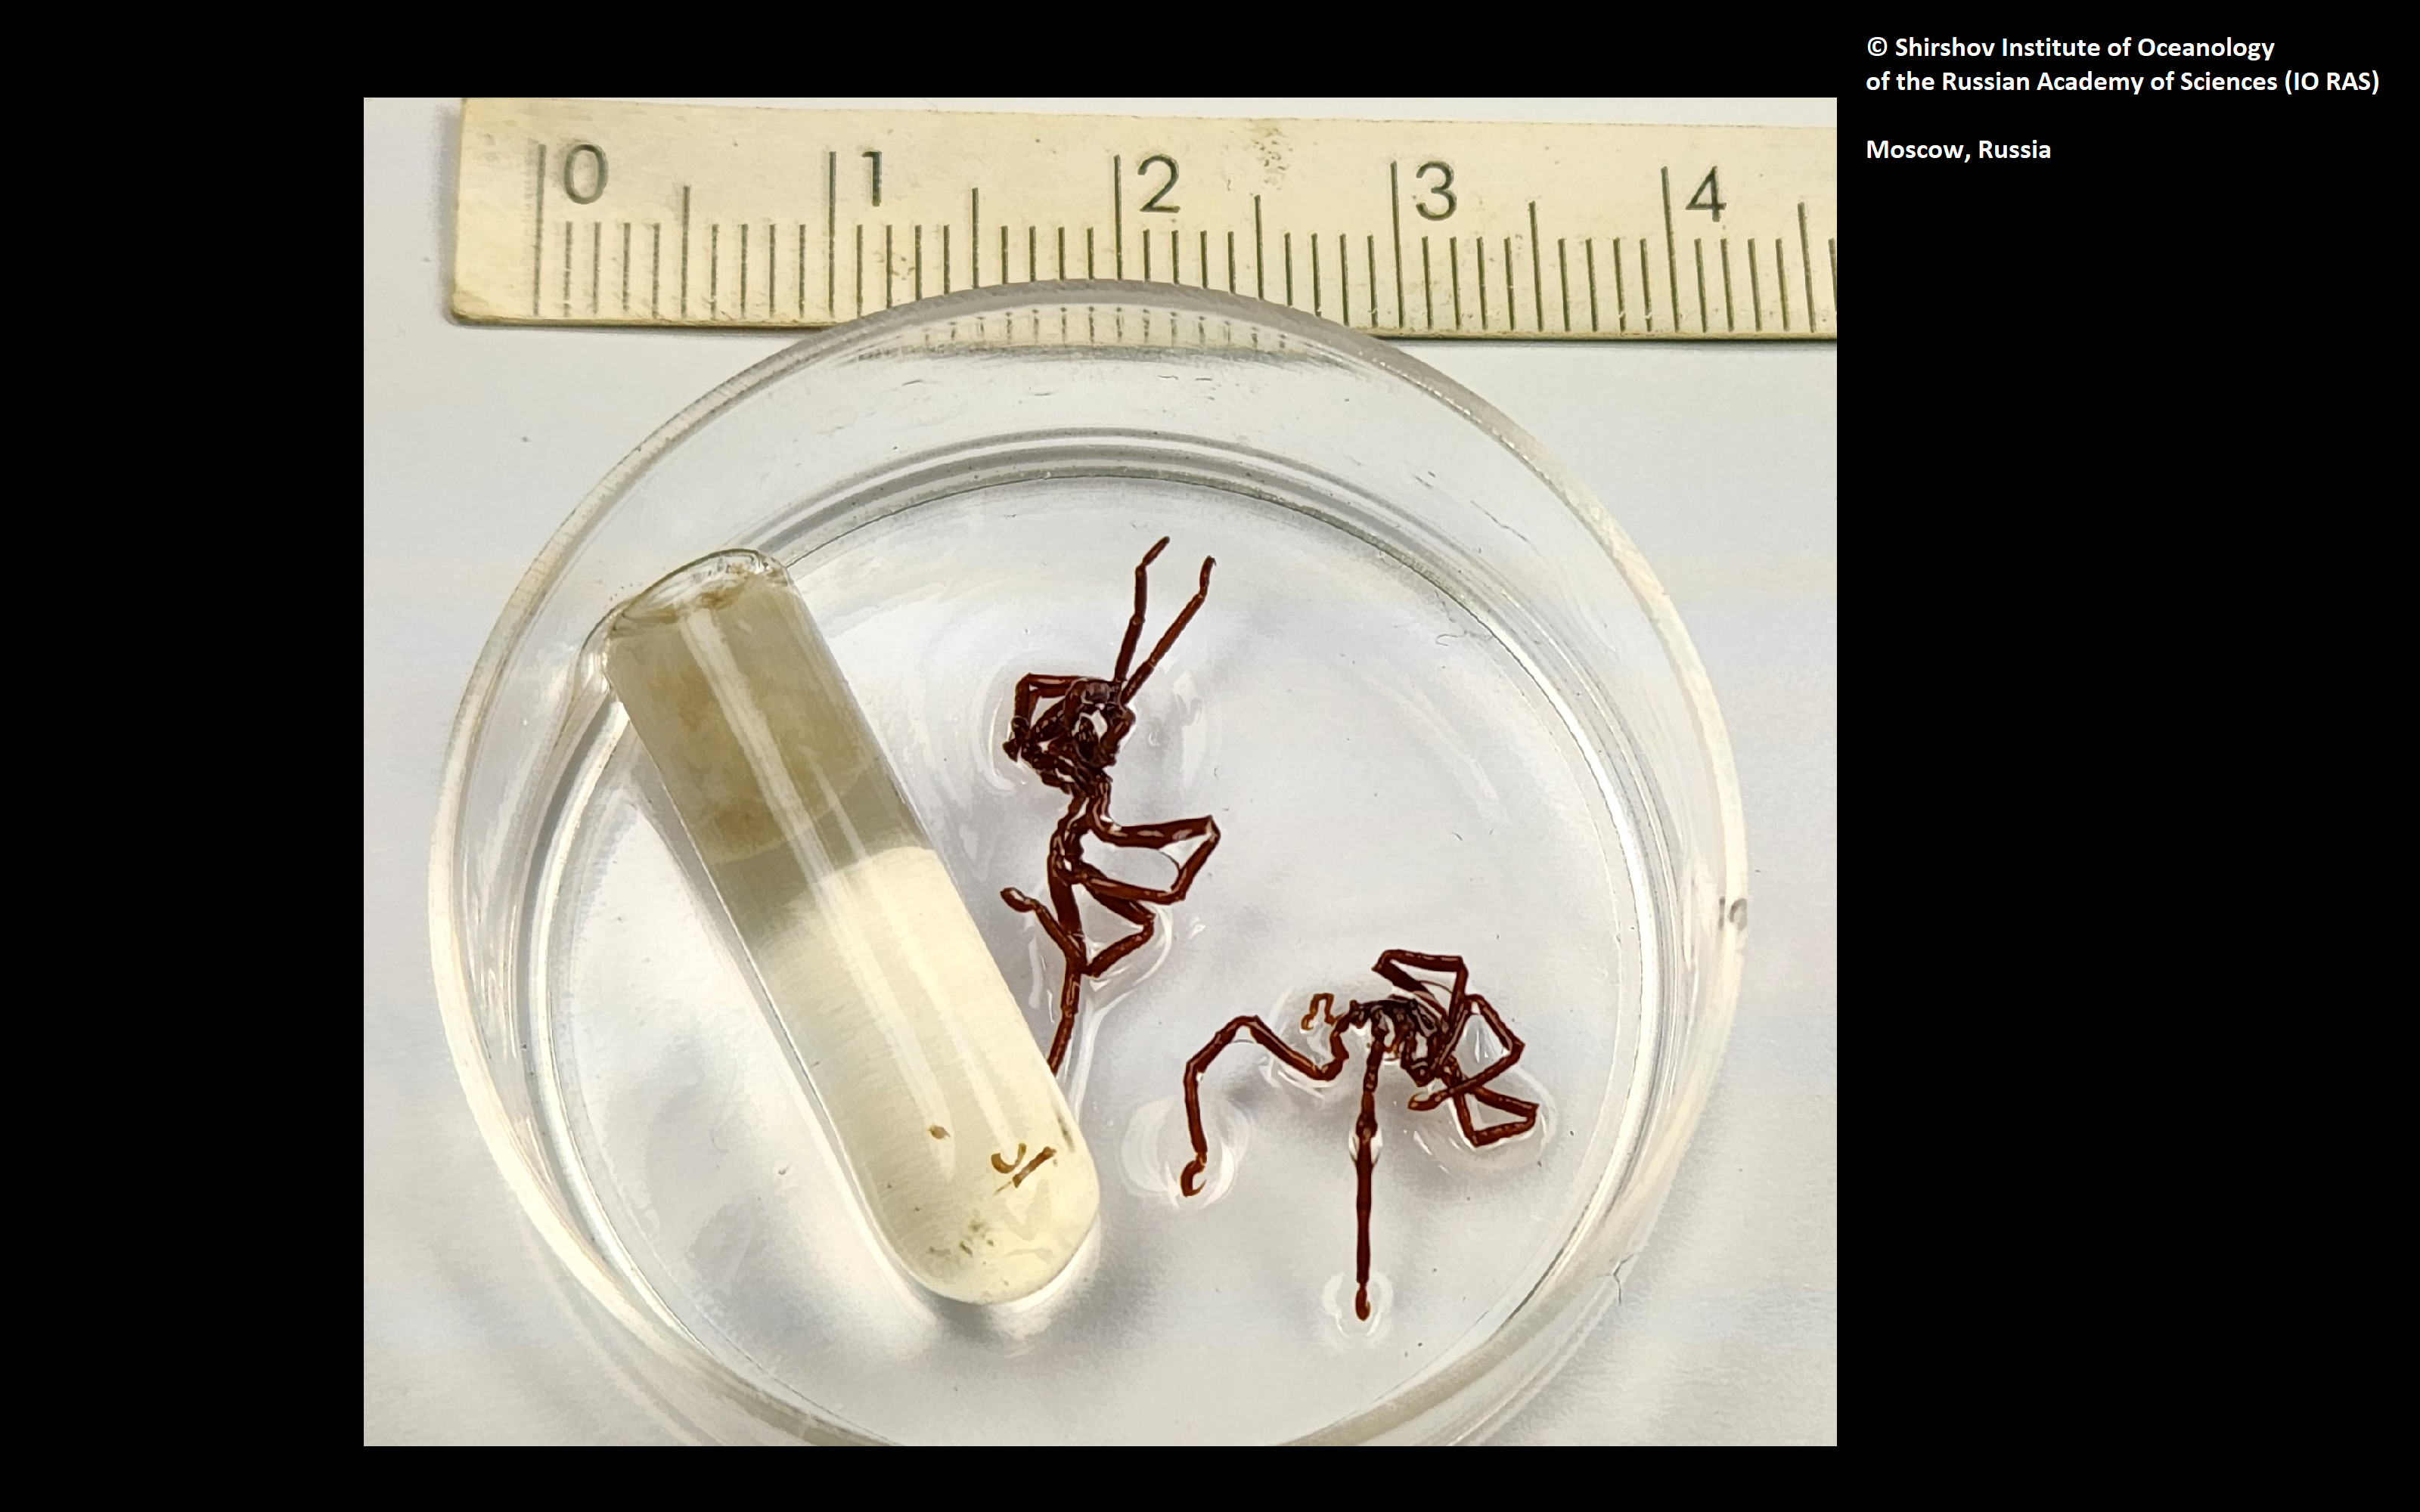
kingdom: Animalia
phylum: Arthropoda
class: Pycnogonida
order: Pantopoda
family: Phoxichilidiidae
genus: Anoplodactylus
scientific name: Anoplodactylus globotuberculosus
